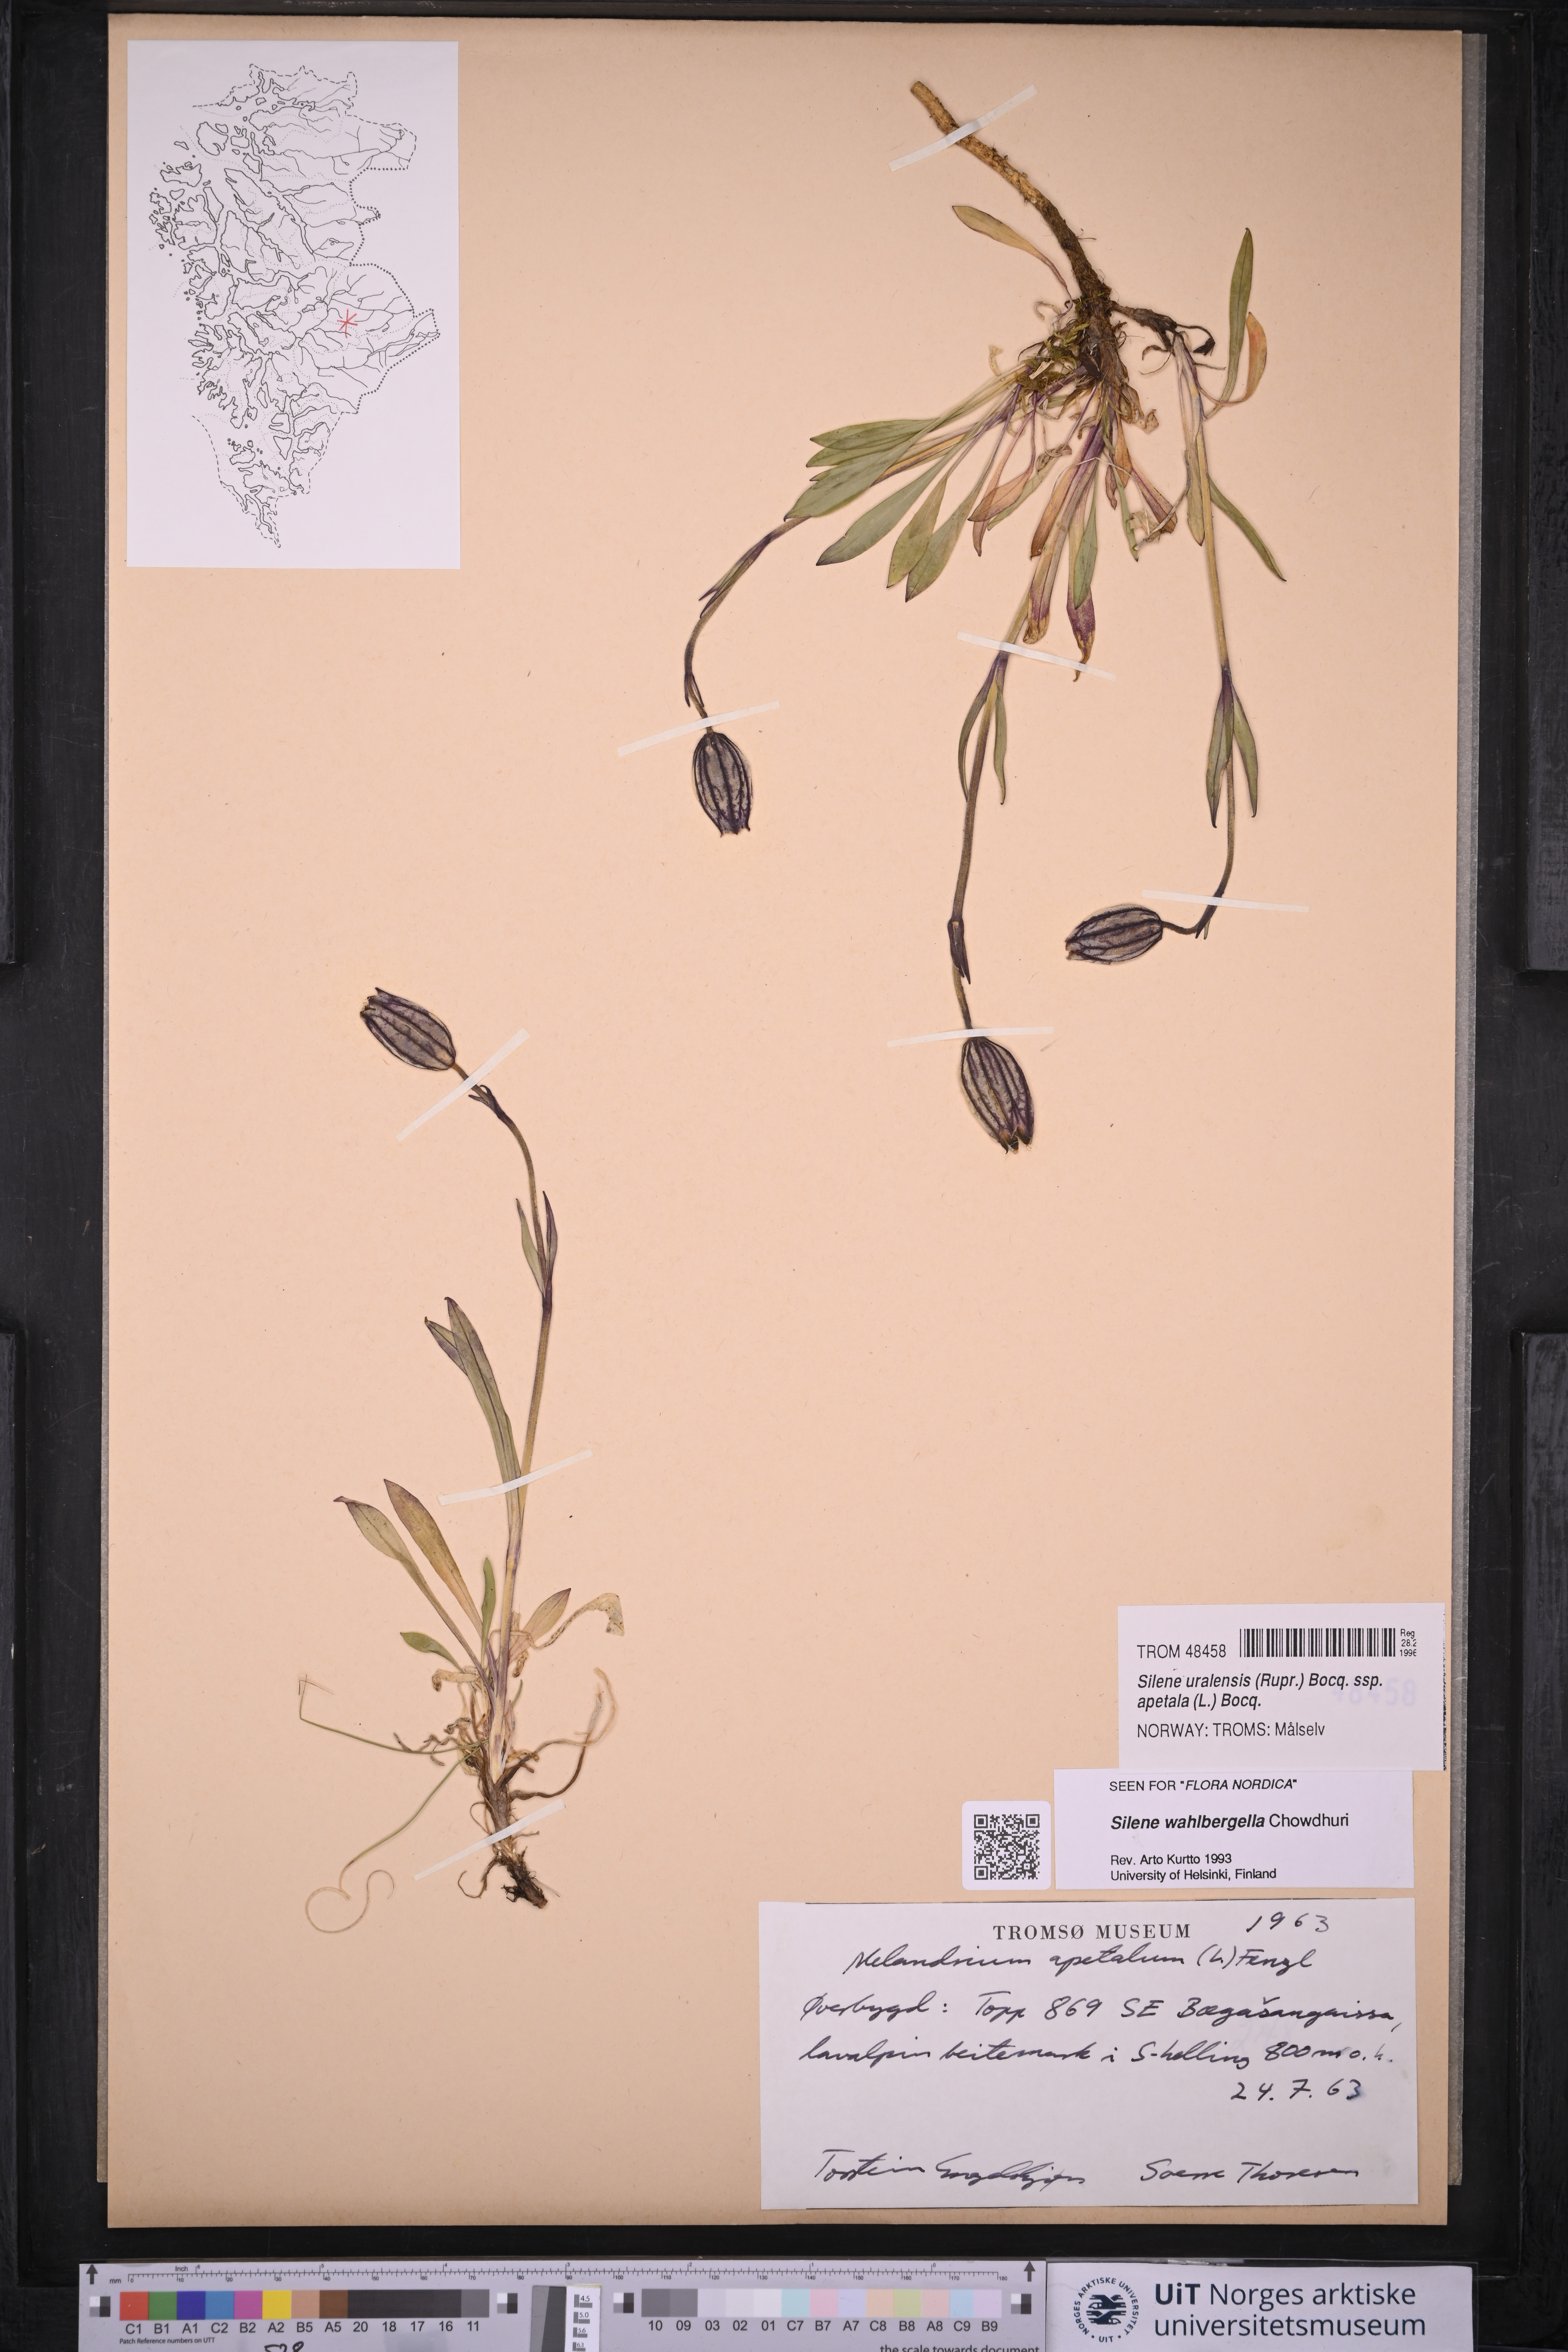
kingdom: Plantae
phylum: Tracheophyta
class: Magnoliopsida
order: Caryophyllales
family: Caryophyllaceae
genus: Silene
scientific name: Silene wahlbergella
